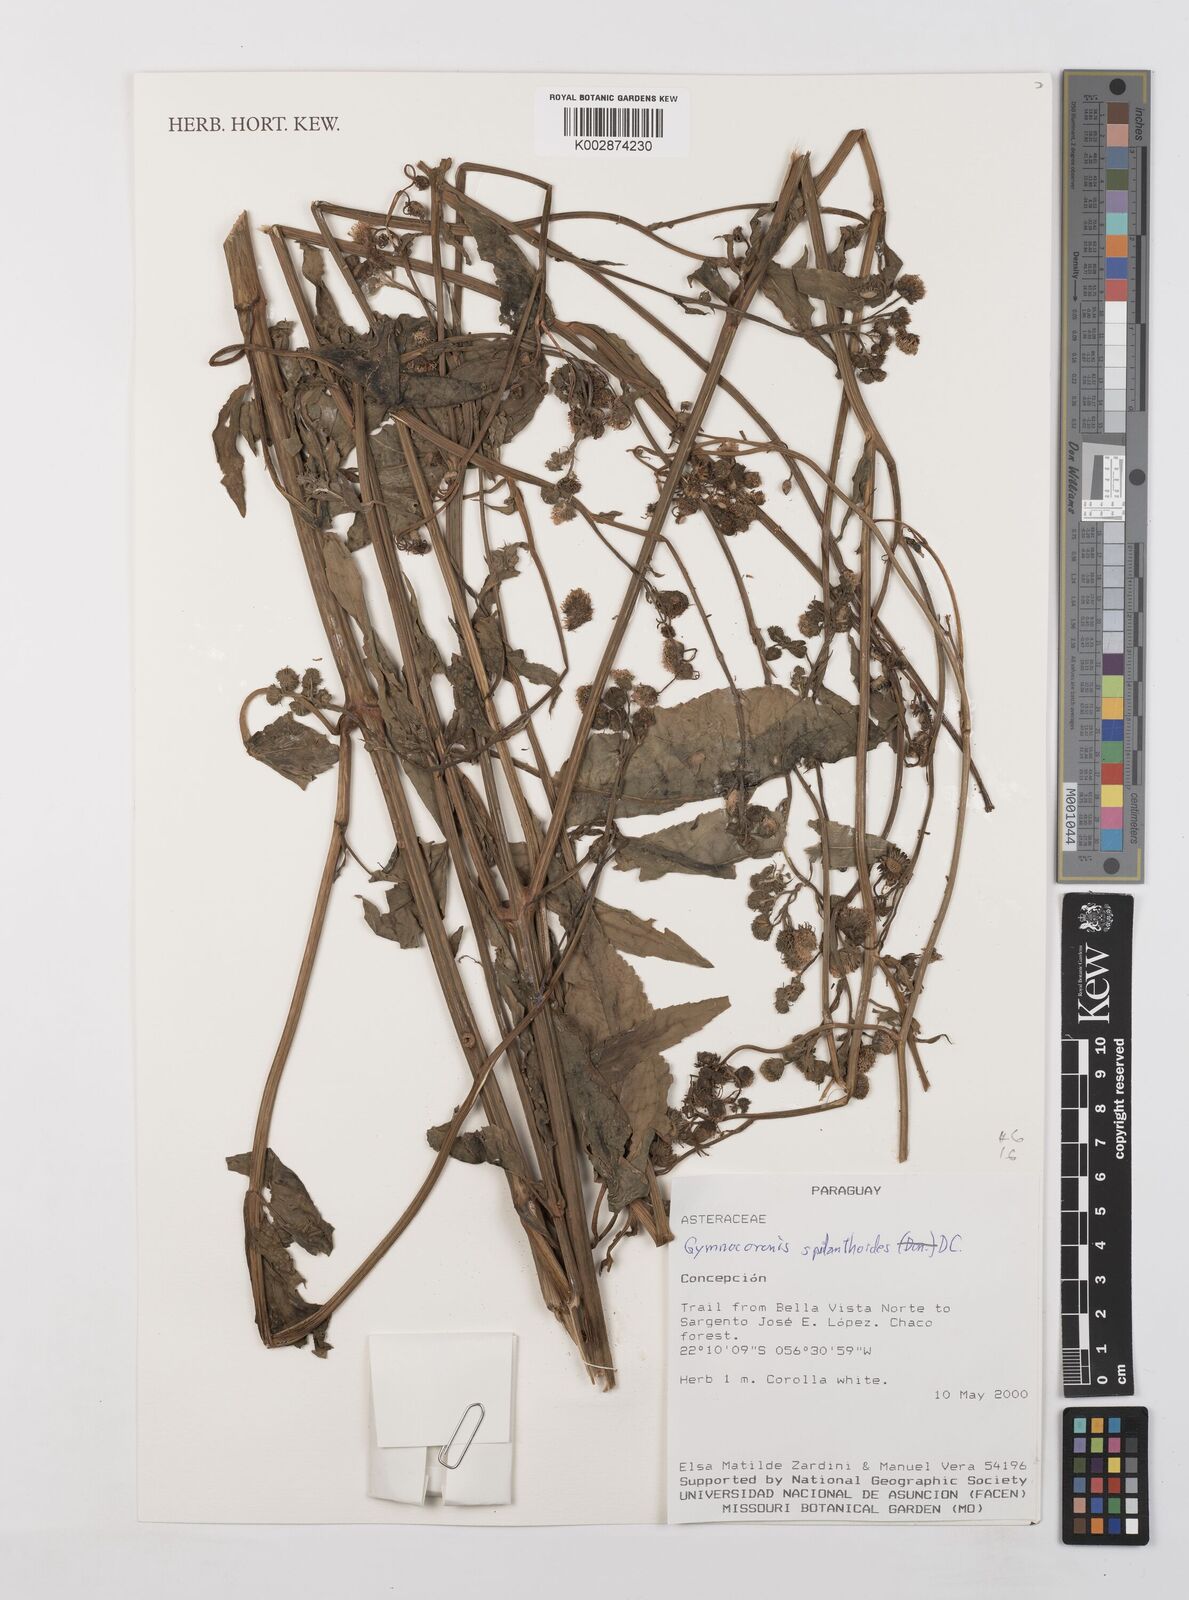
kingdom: Plantae
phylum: Tracheophyta
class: Magnoliopsida
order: Asterales
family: Asteraceae
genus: Gymnocoronis
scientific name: Gymnocoronis spilanthoides
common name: Senegal teaplant
